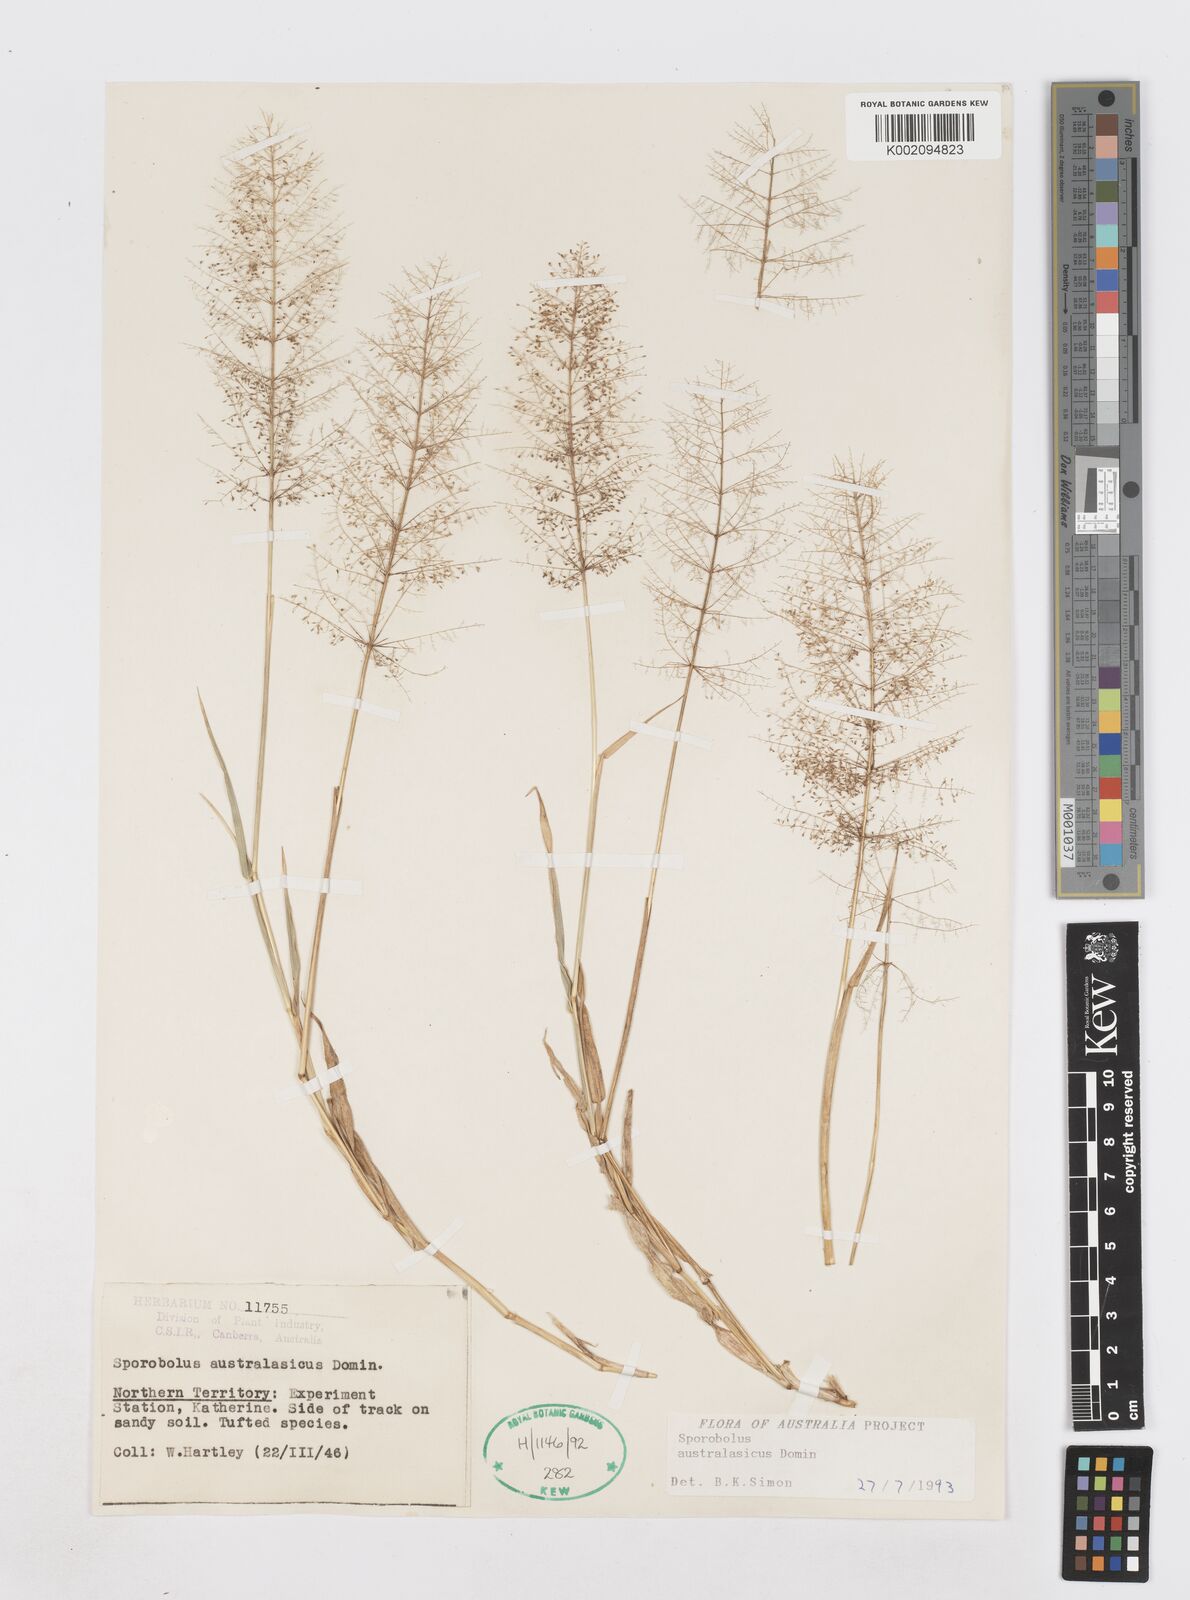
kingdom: Plantae
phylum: Tracheophyta
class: Liliopsida
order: Poales
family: Poaceae
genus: Sporobolus
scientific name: Sporobolus australasicus
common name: Australian dropseed
